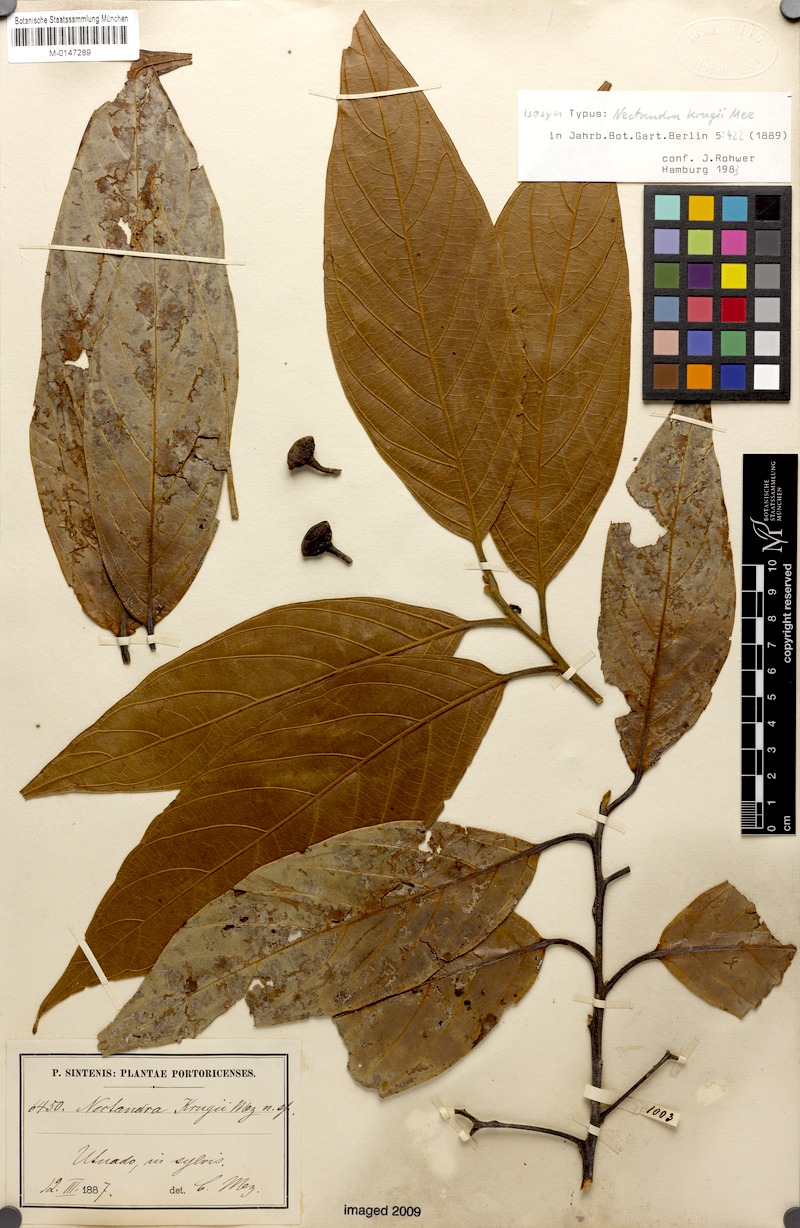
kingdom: Plantae
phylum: Tracheophyta
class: Magnoliopsida
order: Laurales
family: Lauraceae
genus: Nectandra
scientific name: Nectandra krugii
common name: Black sweetwood
